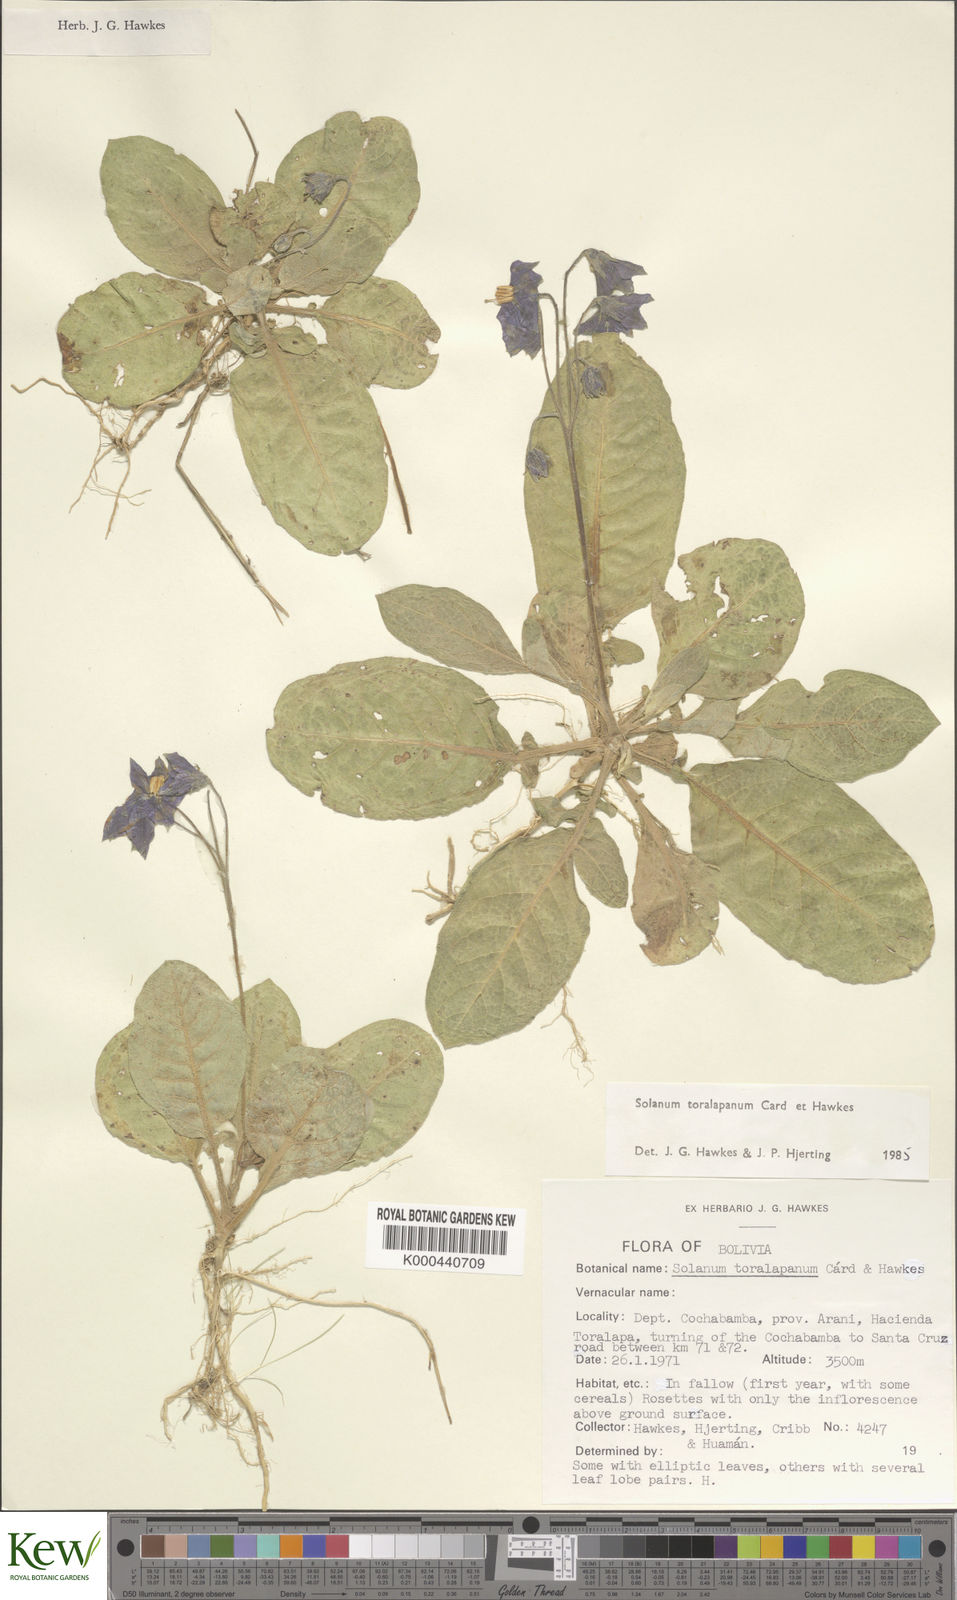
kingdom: Plantae
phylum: Tracheophyta
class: Magnoliopsida
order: Solanales
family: Solanaceae
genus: Solanum
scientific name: Solanum boliviense
